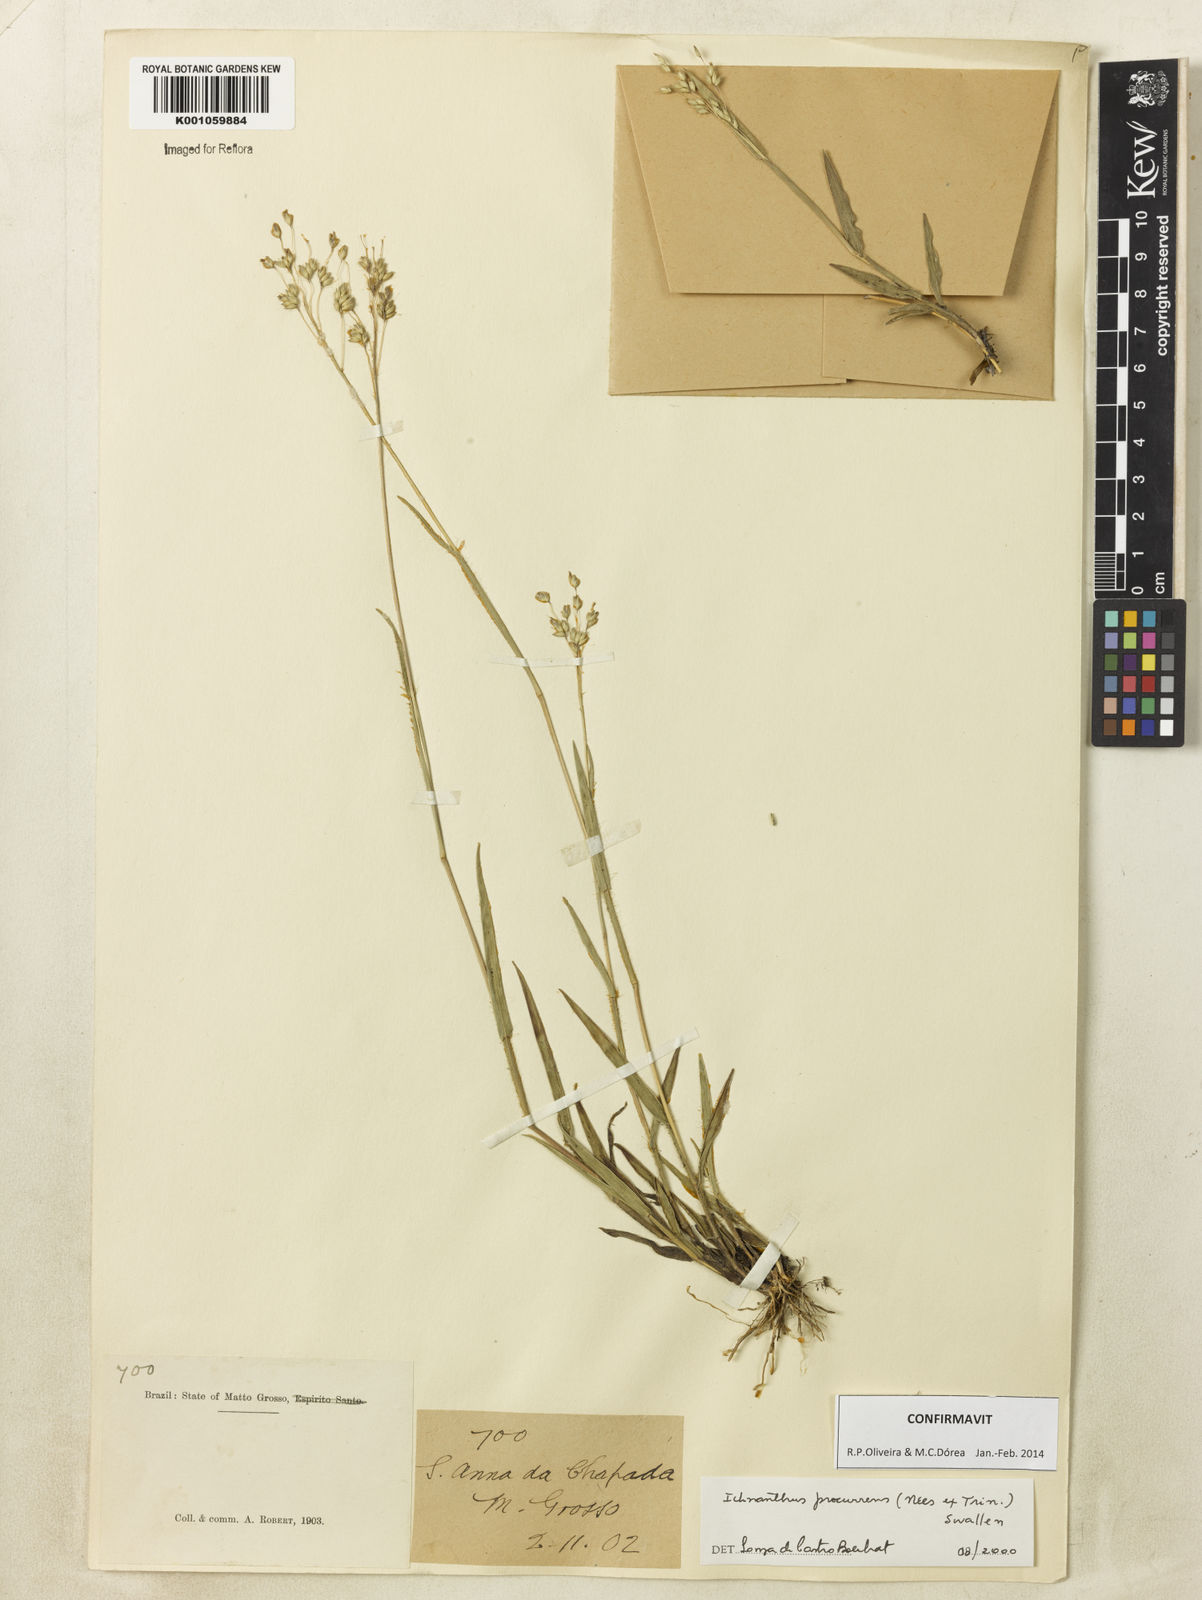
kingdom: Plantae
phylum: Tracheophyta
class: Liliopsida
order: Poales
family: Poaceae
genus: Oedochloa
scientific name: Oedochloa procurrens
